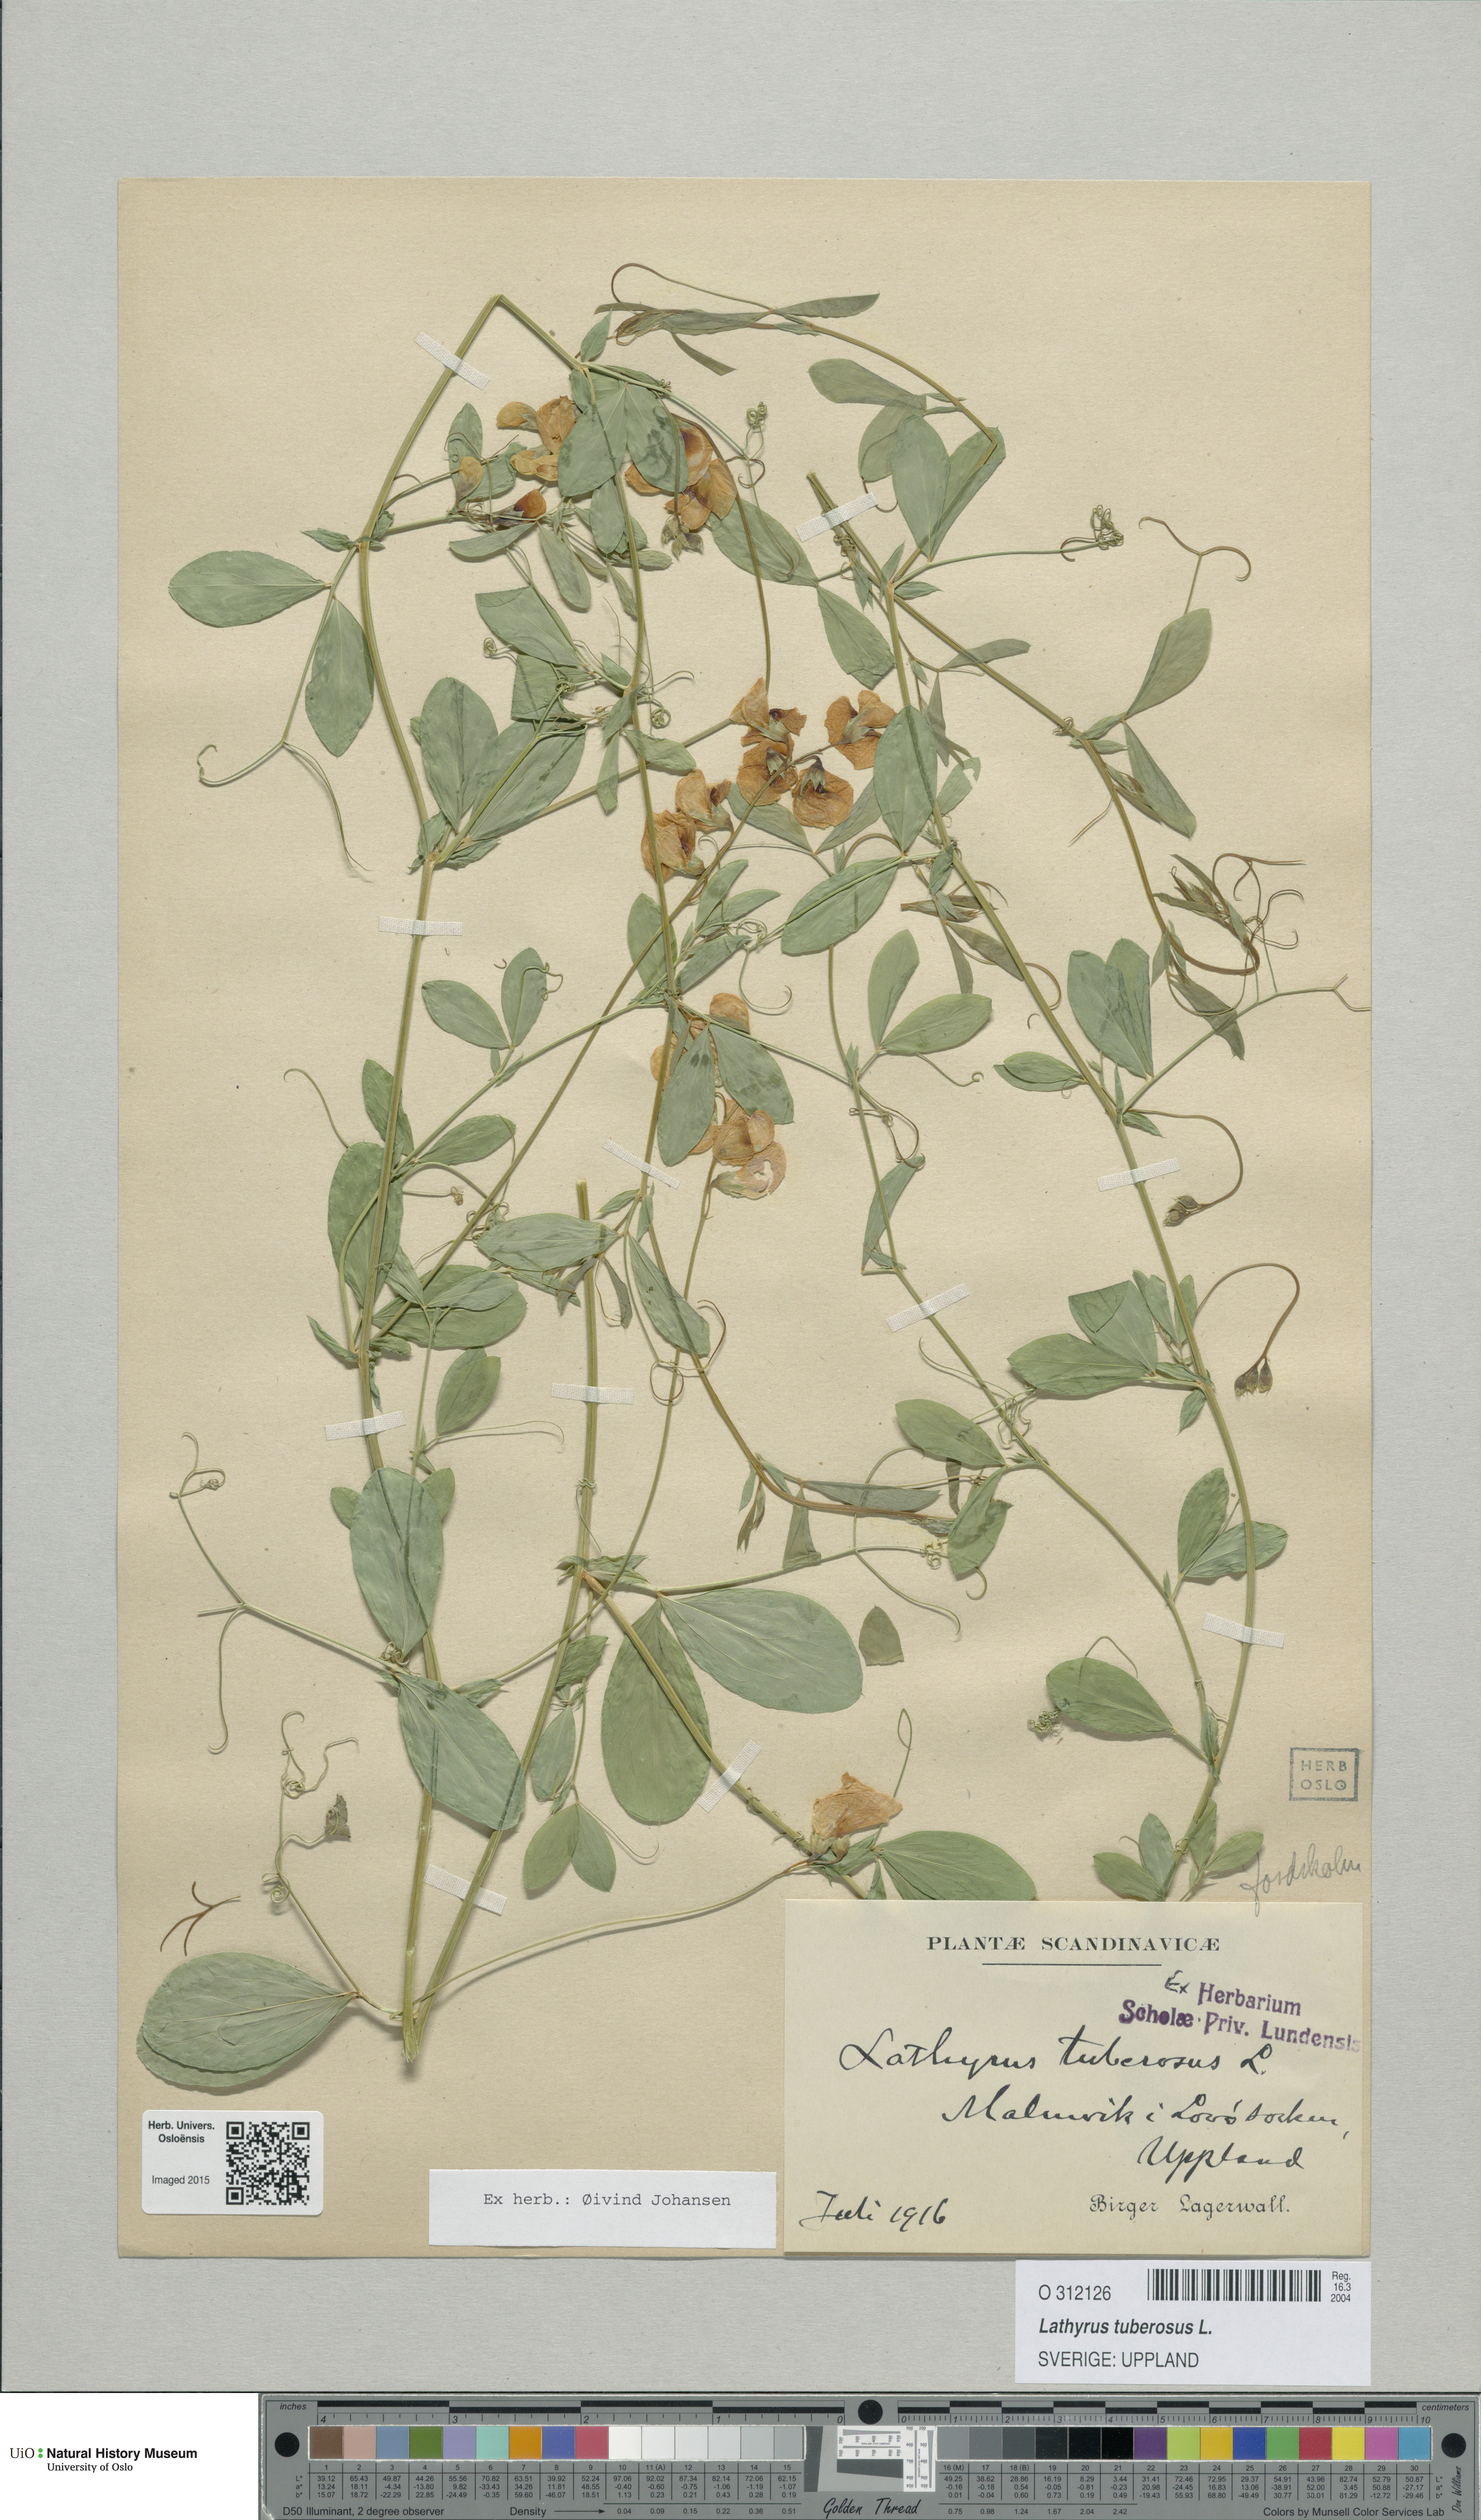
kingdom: Plantae
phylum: Tracheophyta
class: Magnoliopsida
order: Fabales
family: Fabaceae
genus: Lathyrus
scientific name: Lathyrus tuberosus
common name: Tuberous pea
